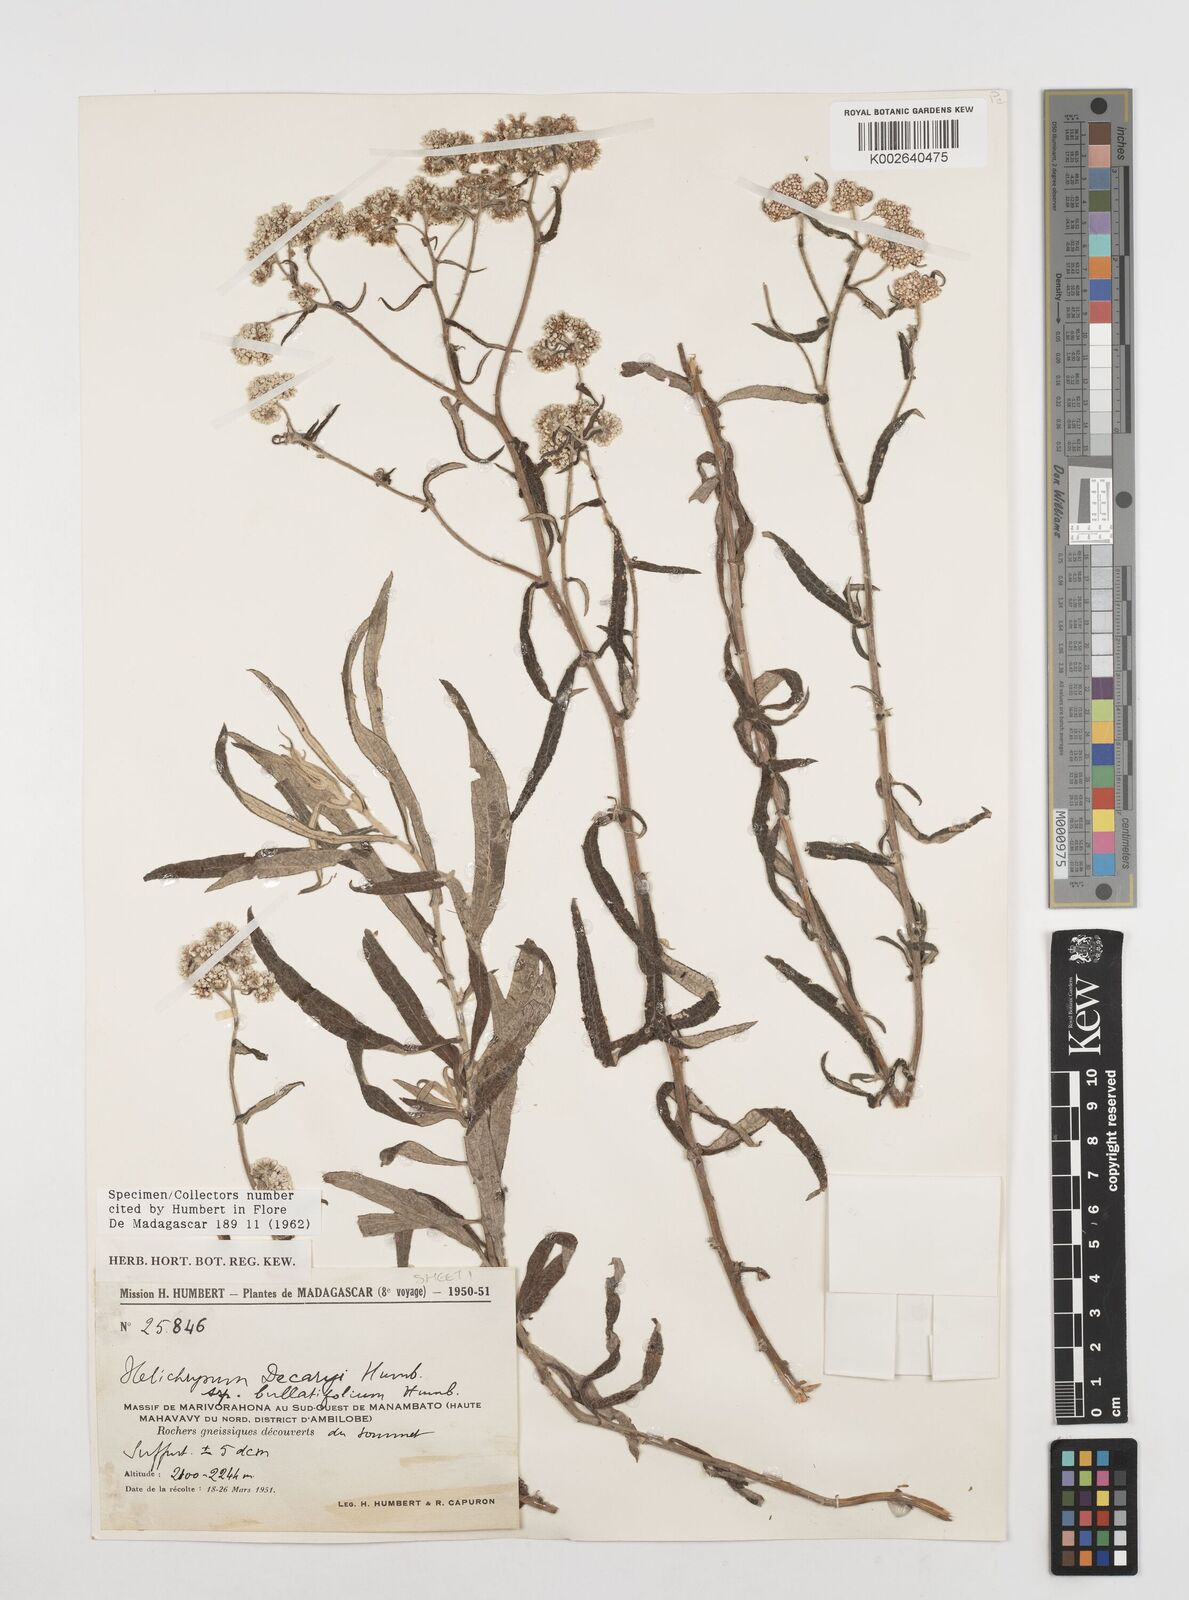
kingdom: Plantae
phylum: Tracheophyta
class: Magnoliopsida
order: Asterales
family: Asteraceae
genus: Helichrysum
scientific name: Helichrysum decaryi
